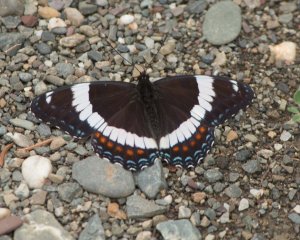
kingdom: Animalia
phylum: Arthropoda
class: Insecta
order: Lepidoptera
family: Nymphalidae
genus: Limenitis
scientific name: Limenitis arthemis
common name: Red-spotted Admiral
